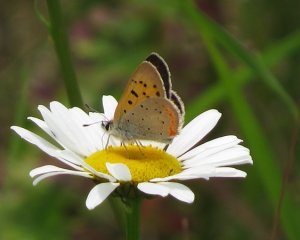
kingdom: Animalia
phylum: Arthropoda
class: Insecta
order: Lepidoptera
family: Lycaenidae
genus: Lycaena
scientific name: Lycaena phlaeas
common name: American Copper
